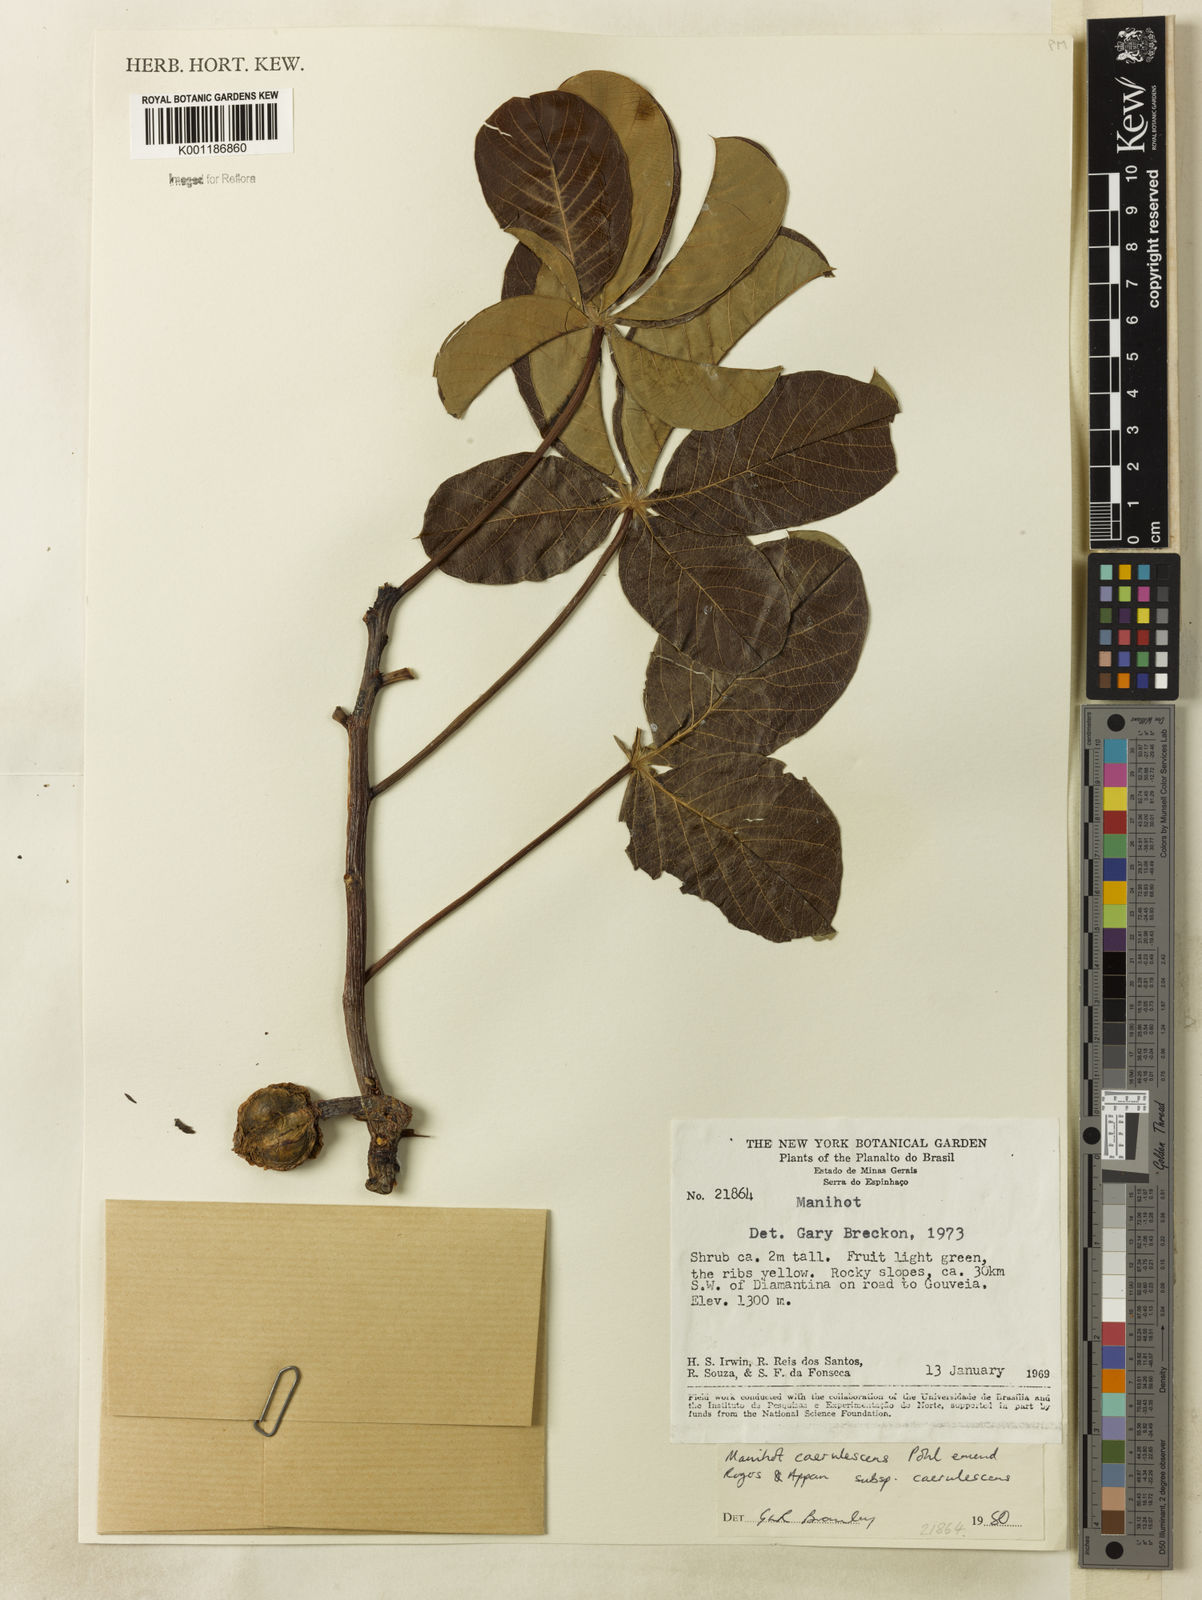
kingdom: Plantae
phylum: Tracheophyta
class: Magnoliopsida
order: Malpighiales
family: Euphorbiaceae
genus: Manihot
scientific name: Manihot caerulescens
